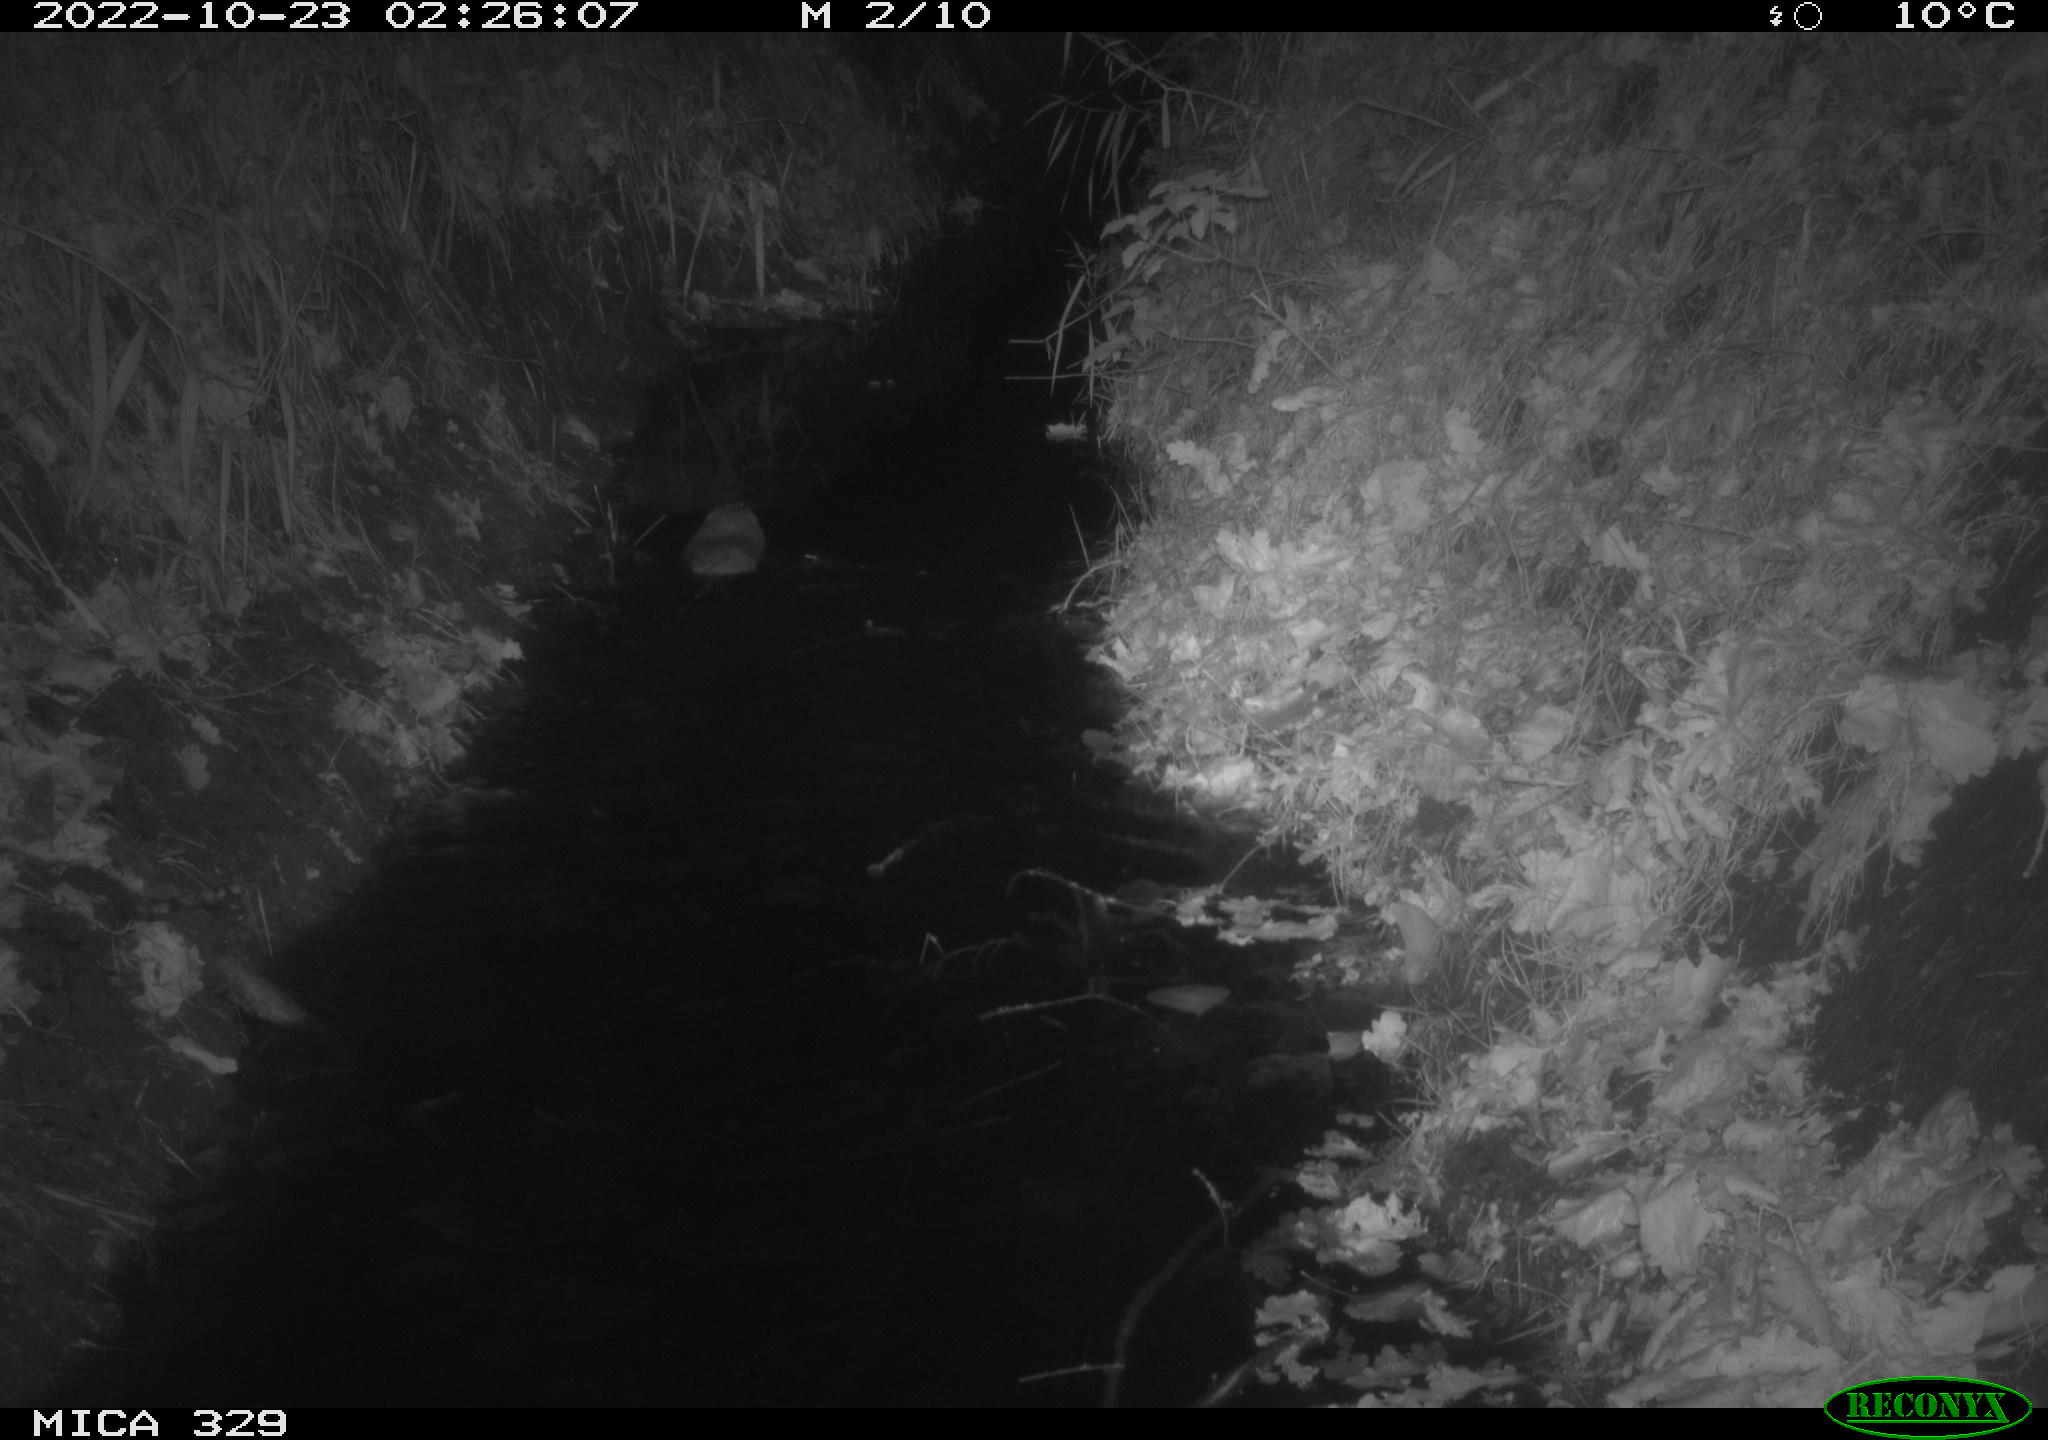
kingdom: Animalia
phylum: Chordata
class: Mammalia
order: Rodentia
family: Cricetidae
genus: Ondatra
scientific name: Ondatra zibethicus
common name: Muskrat
